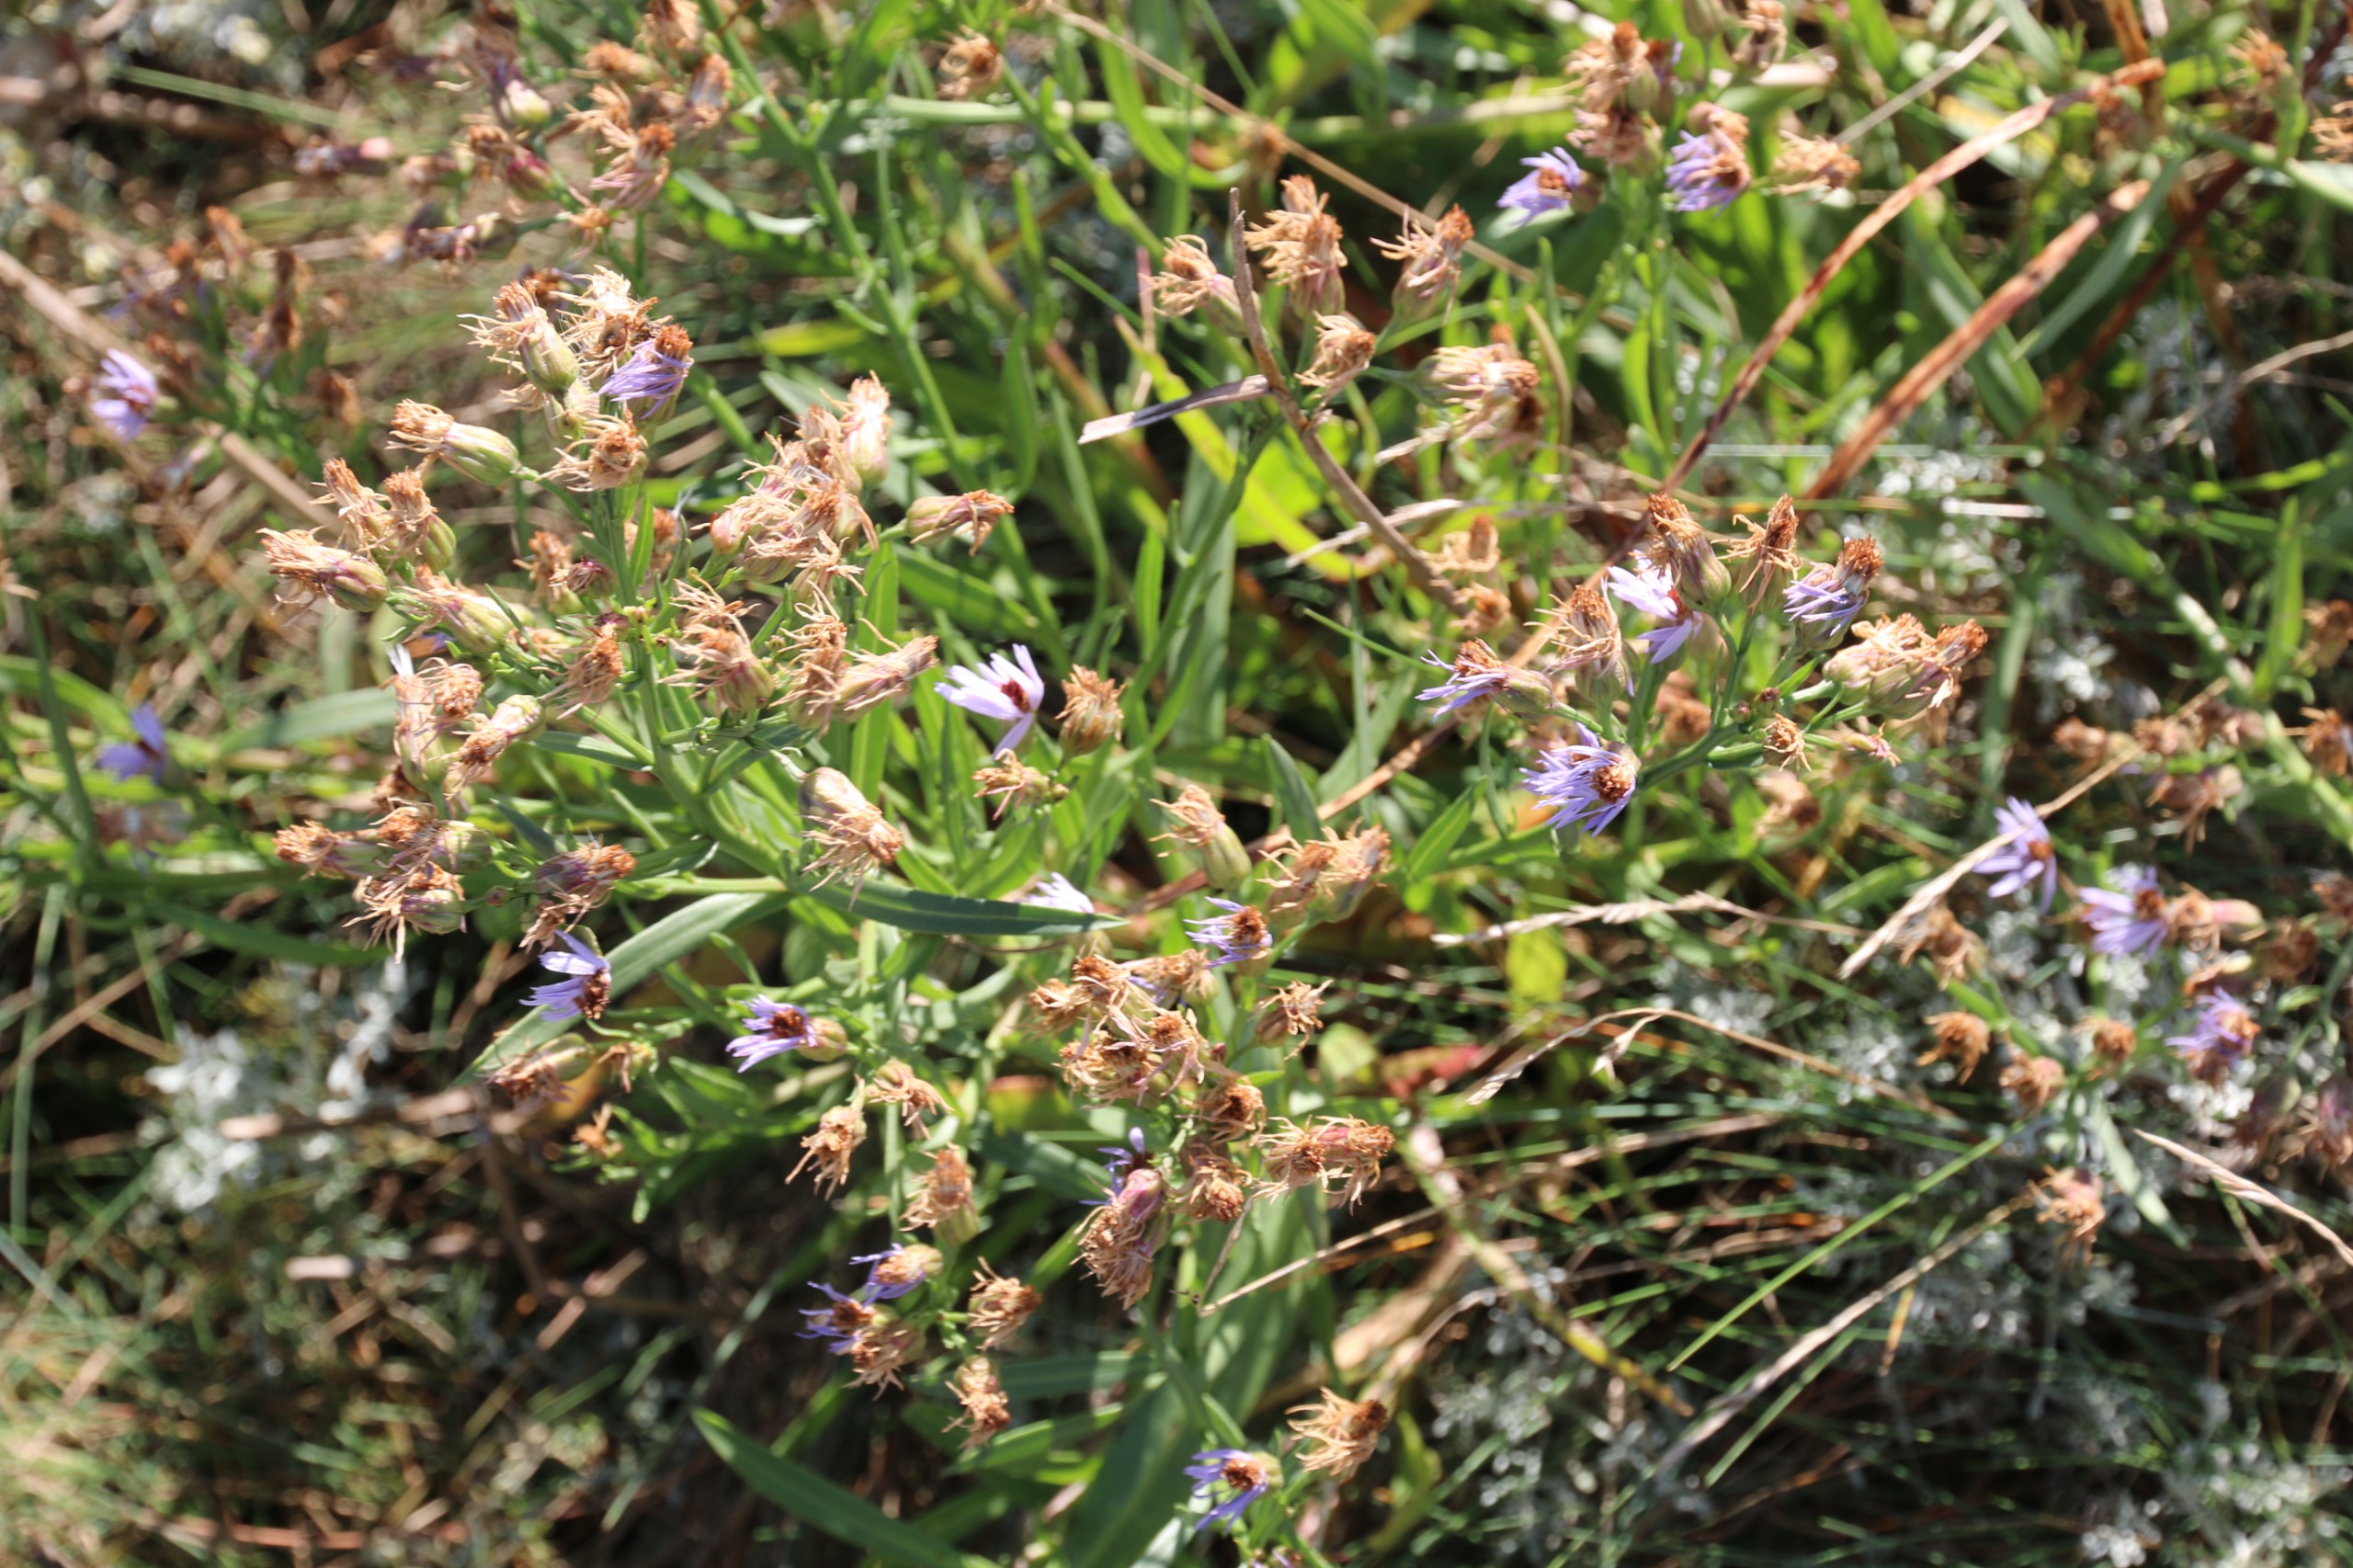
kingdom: Plantae
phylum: Tracheophyta
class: Magnoliopsida
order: Asterales
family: Asteraceae
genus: Tripolium
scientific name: Tripolium pannonicum
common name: Strandasters
